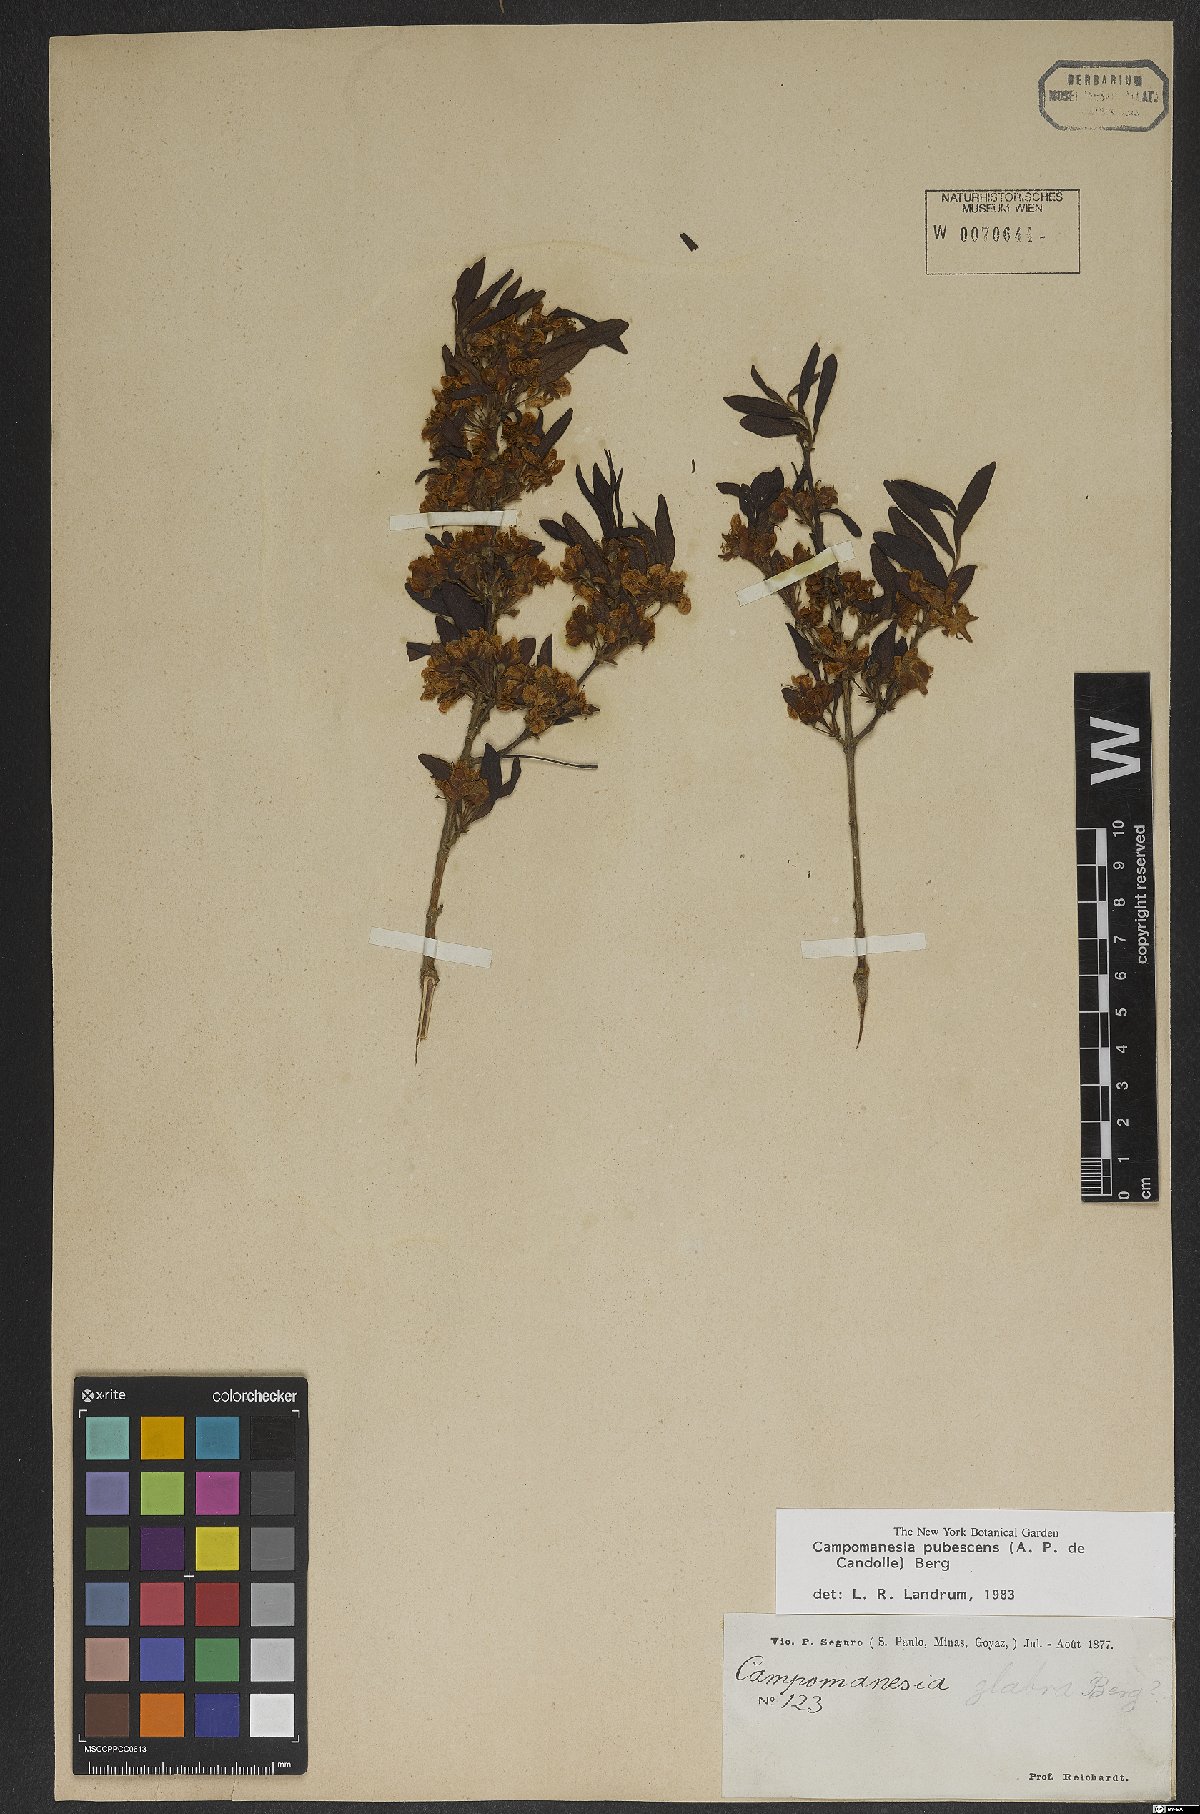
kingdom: Plantae
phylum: Tracheophyta
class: Magnoliopsida
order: Myrtales
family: Myrtaceae
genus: Campomanesia
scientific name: Campomanesia pubescens
